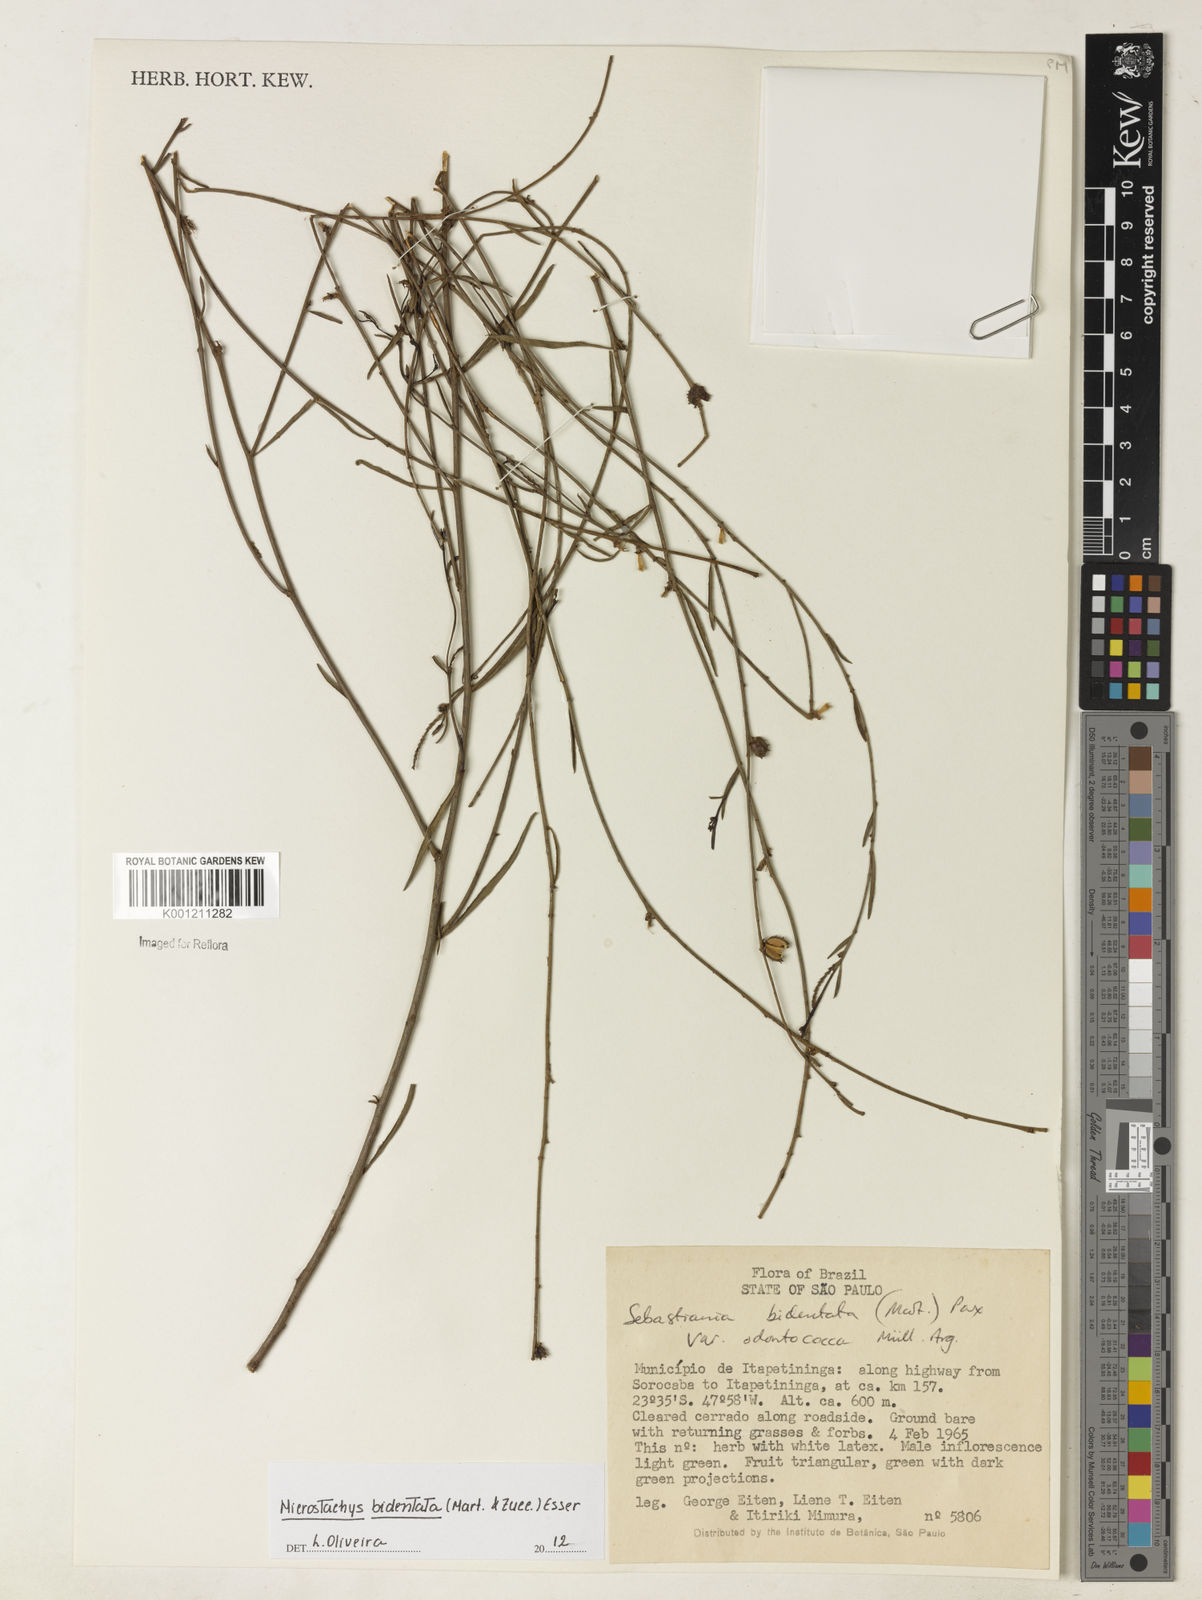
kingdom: Plantae
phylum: Tracheophyta
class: Magnoliopsida
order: Malpighiales
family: Euphorbiaceae
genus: Microstachys
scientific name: Microstachys bidentata
